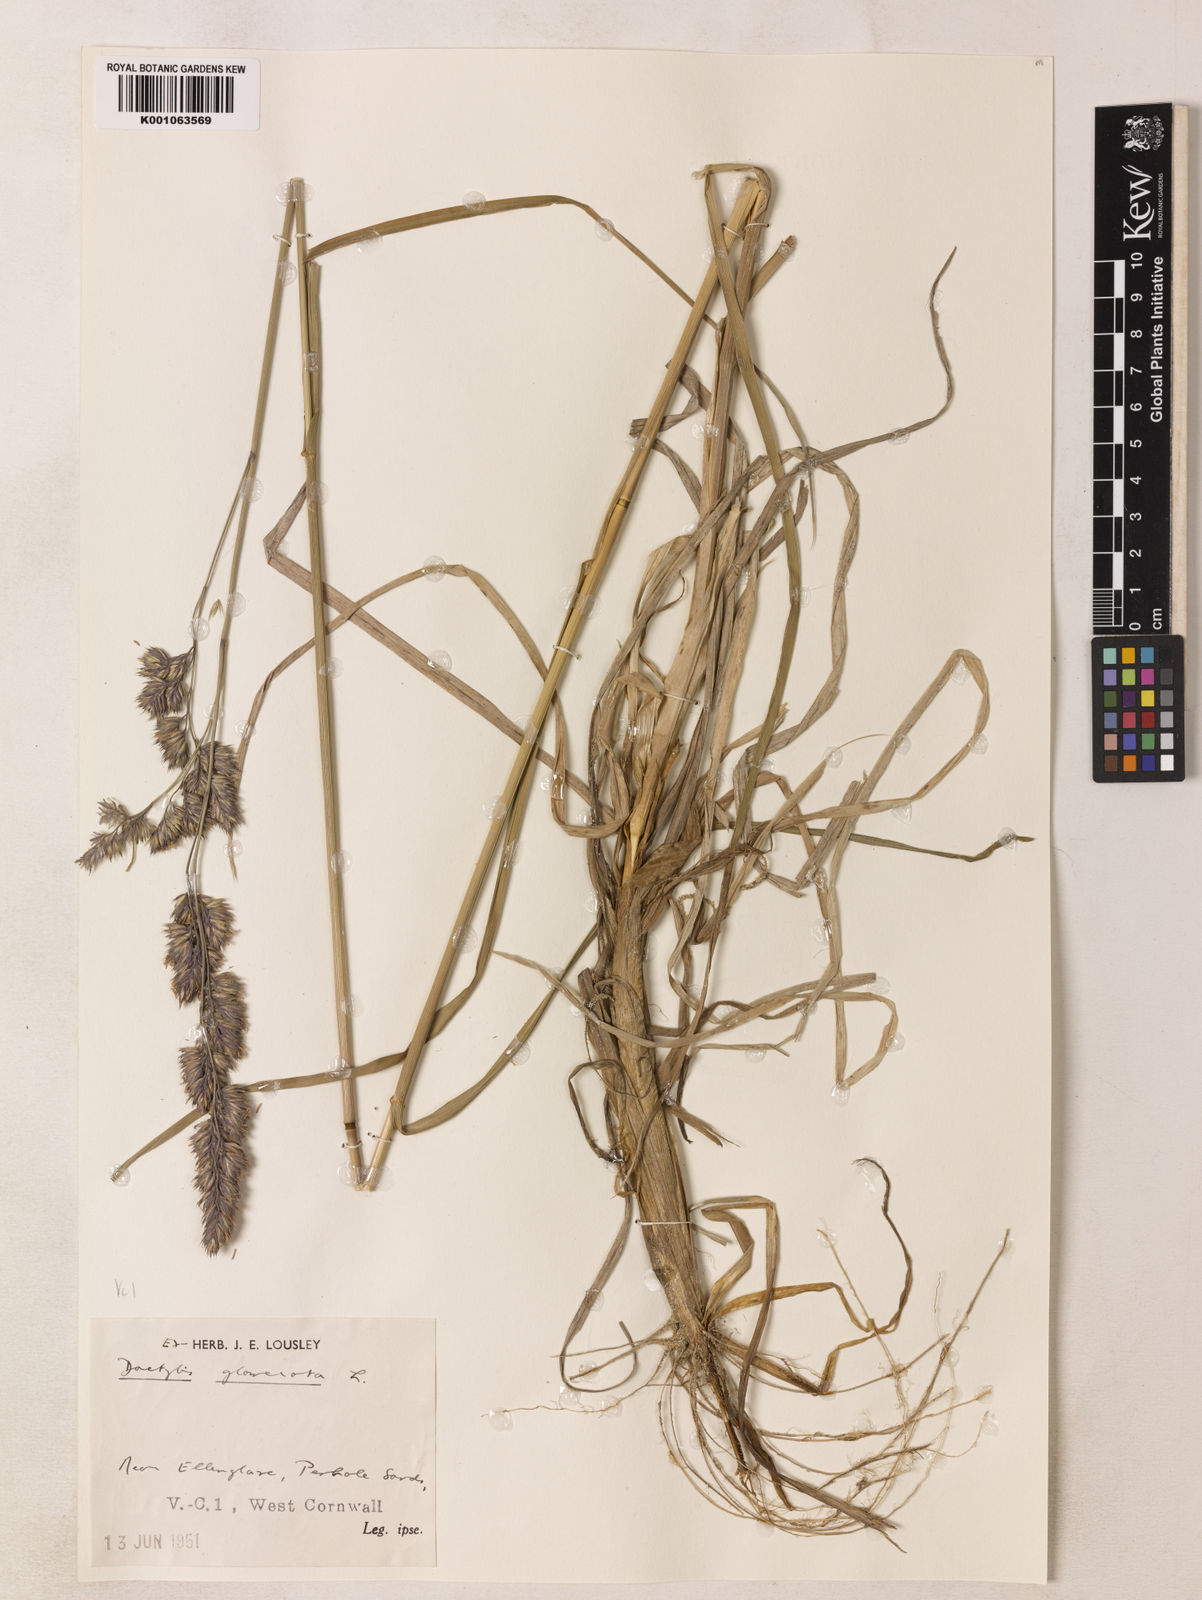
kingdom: Plantae
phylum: Tracheophyta
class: Liliopsida
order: Poales
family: Poaceae
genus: Dactylis
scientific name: Dactylis glomerata
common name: Orchardgrass
